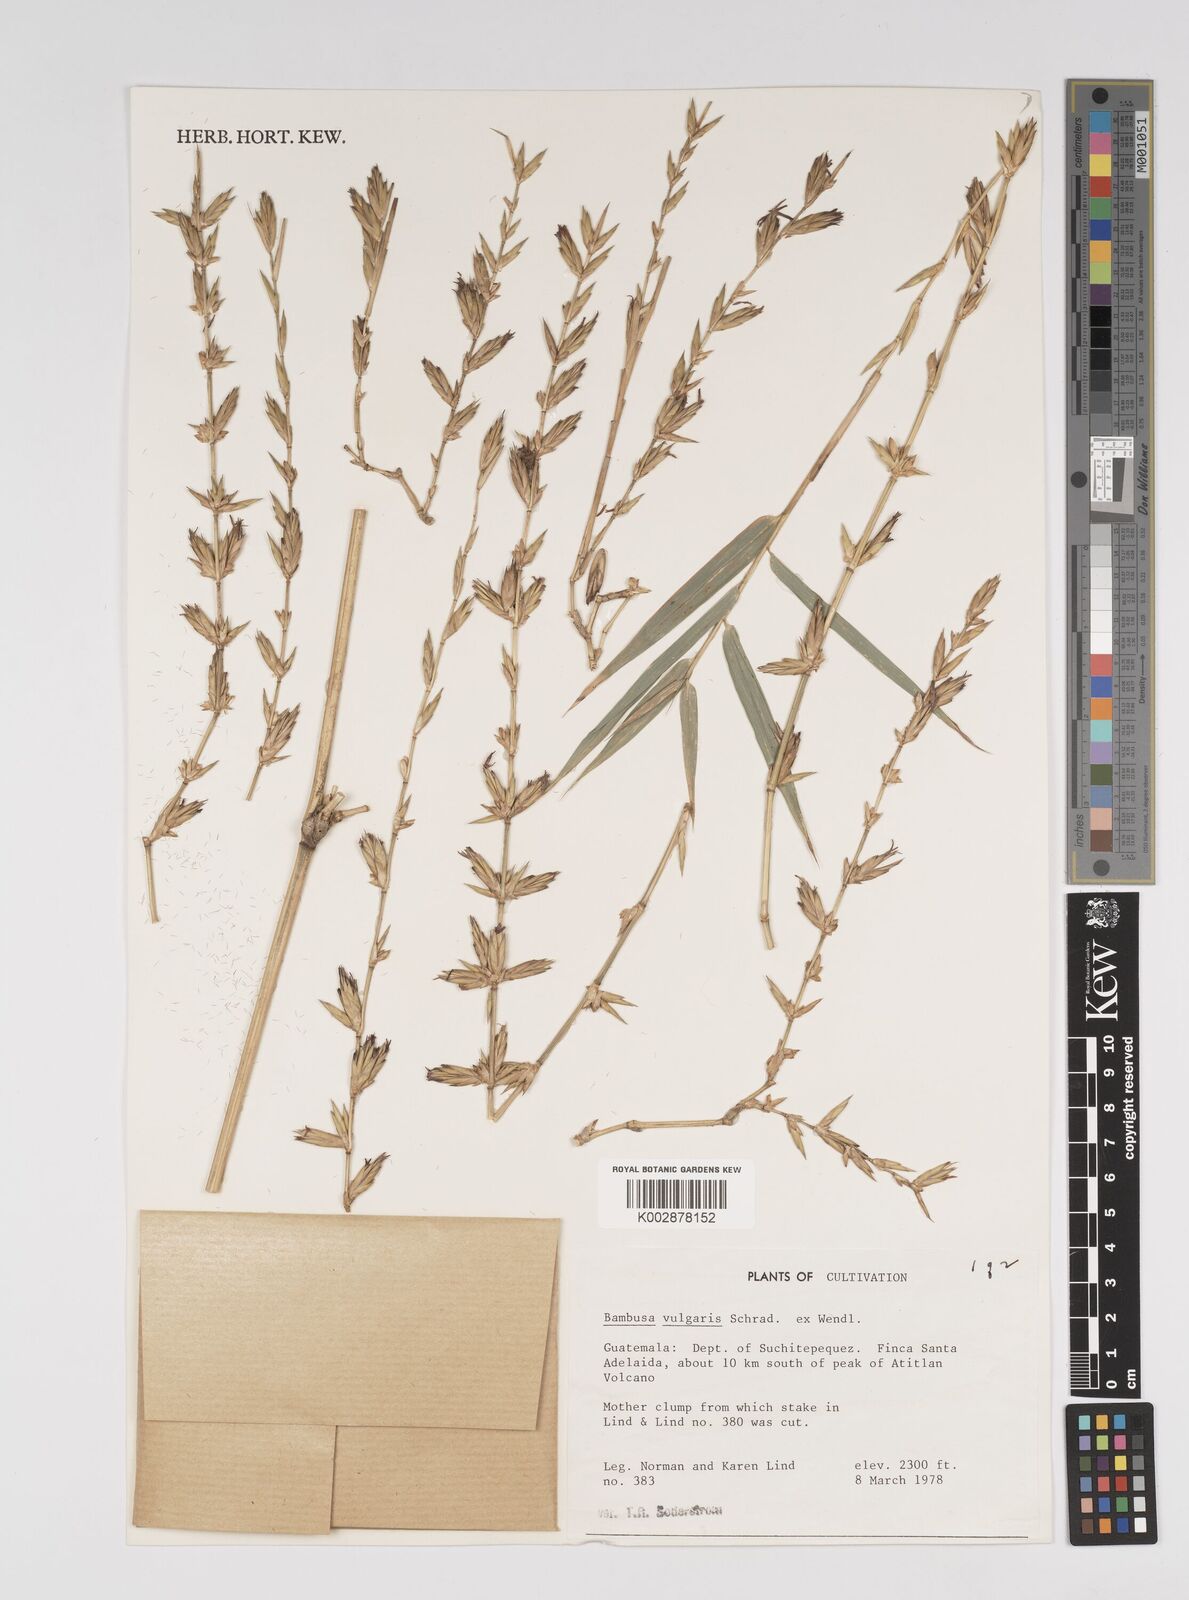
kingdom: Plantae
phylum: Tracheophyta
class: Liliopsida
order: Poales
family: Poaceae
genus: Bambusa
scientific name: Bambusa
